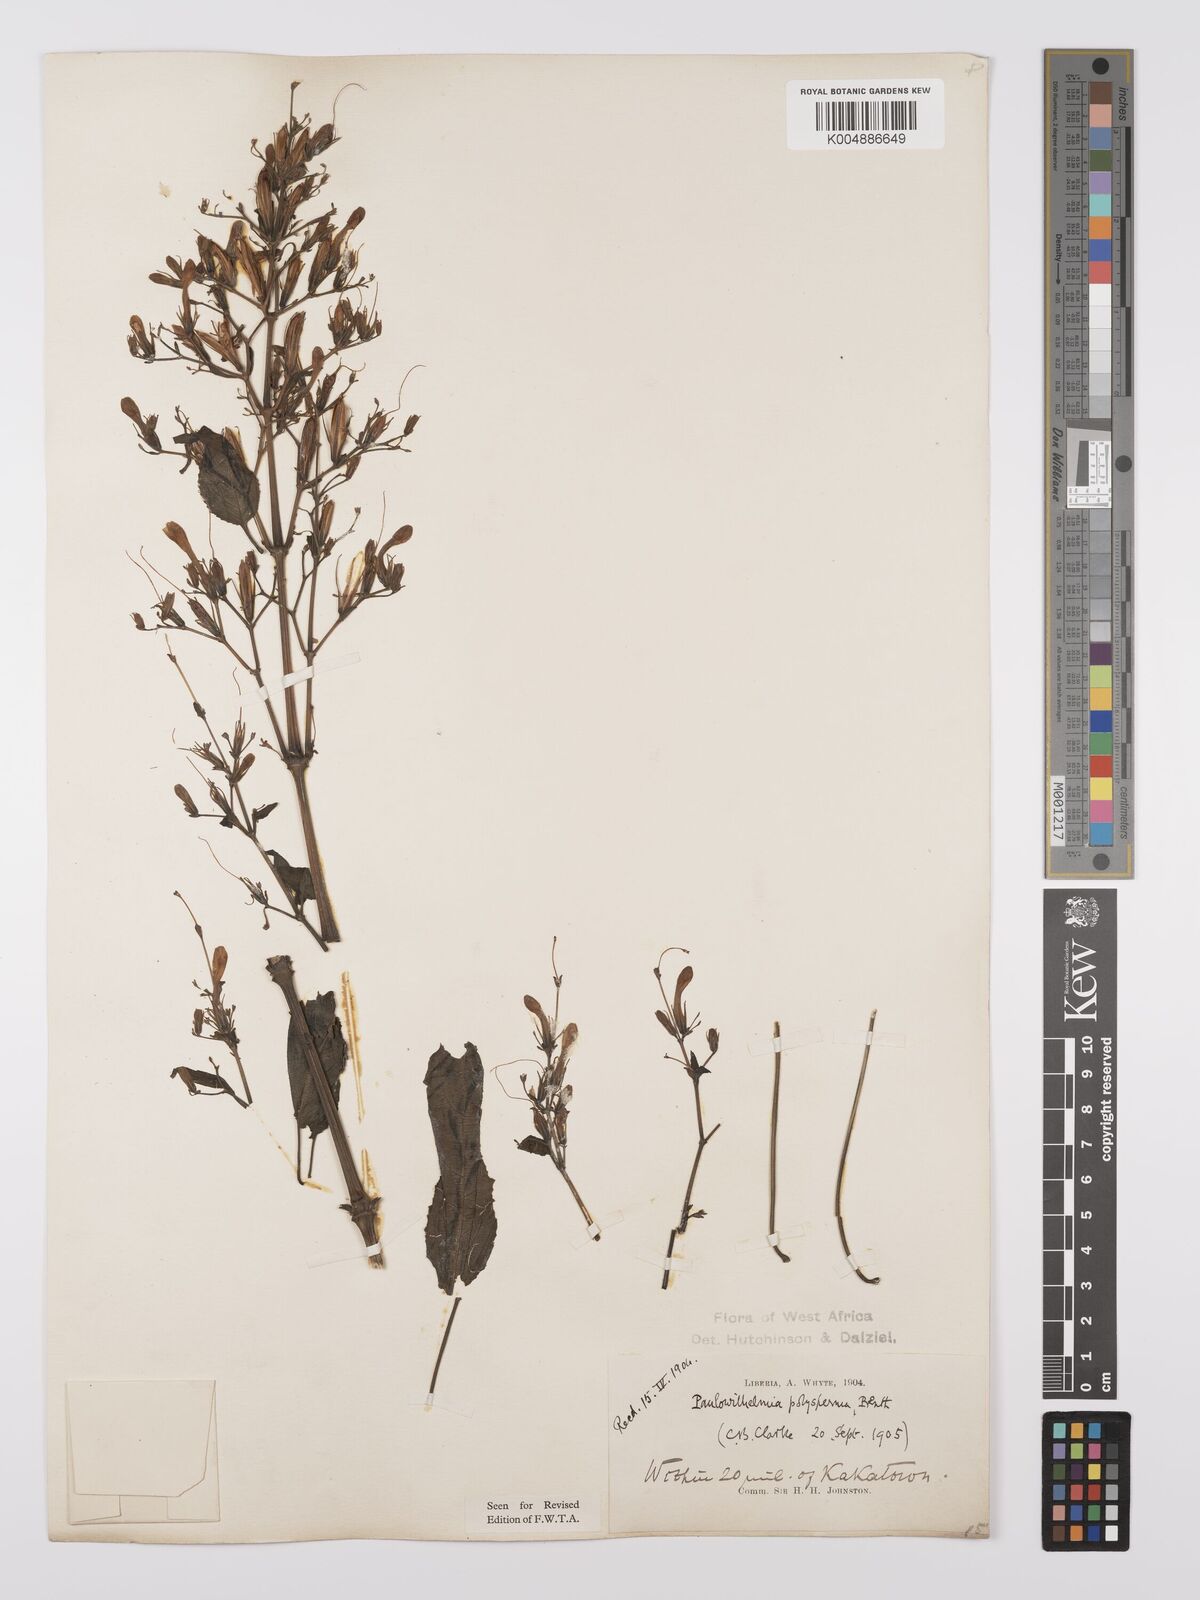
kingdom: Plantae
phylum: Tracheophyta
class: Magnoliopsida
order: Lamiales
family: Acanthaceae
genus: Eremomastax
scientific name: Eremomastax speciosa
